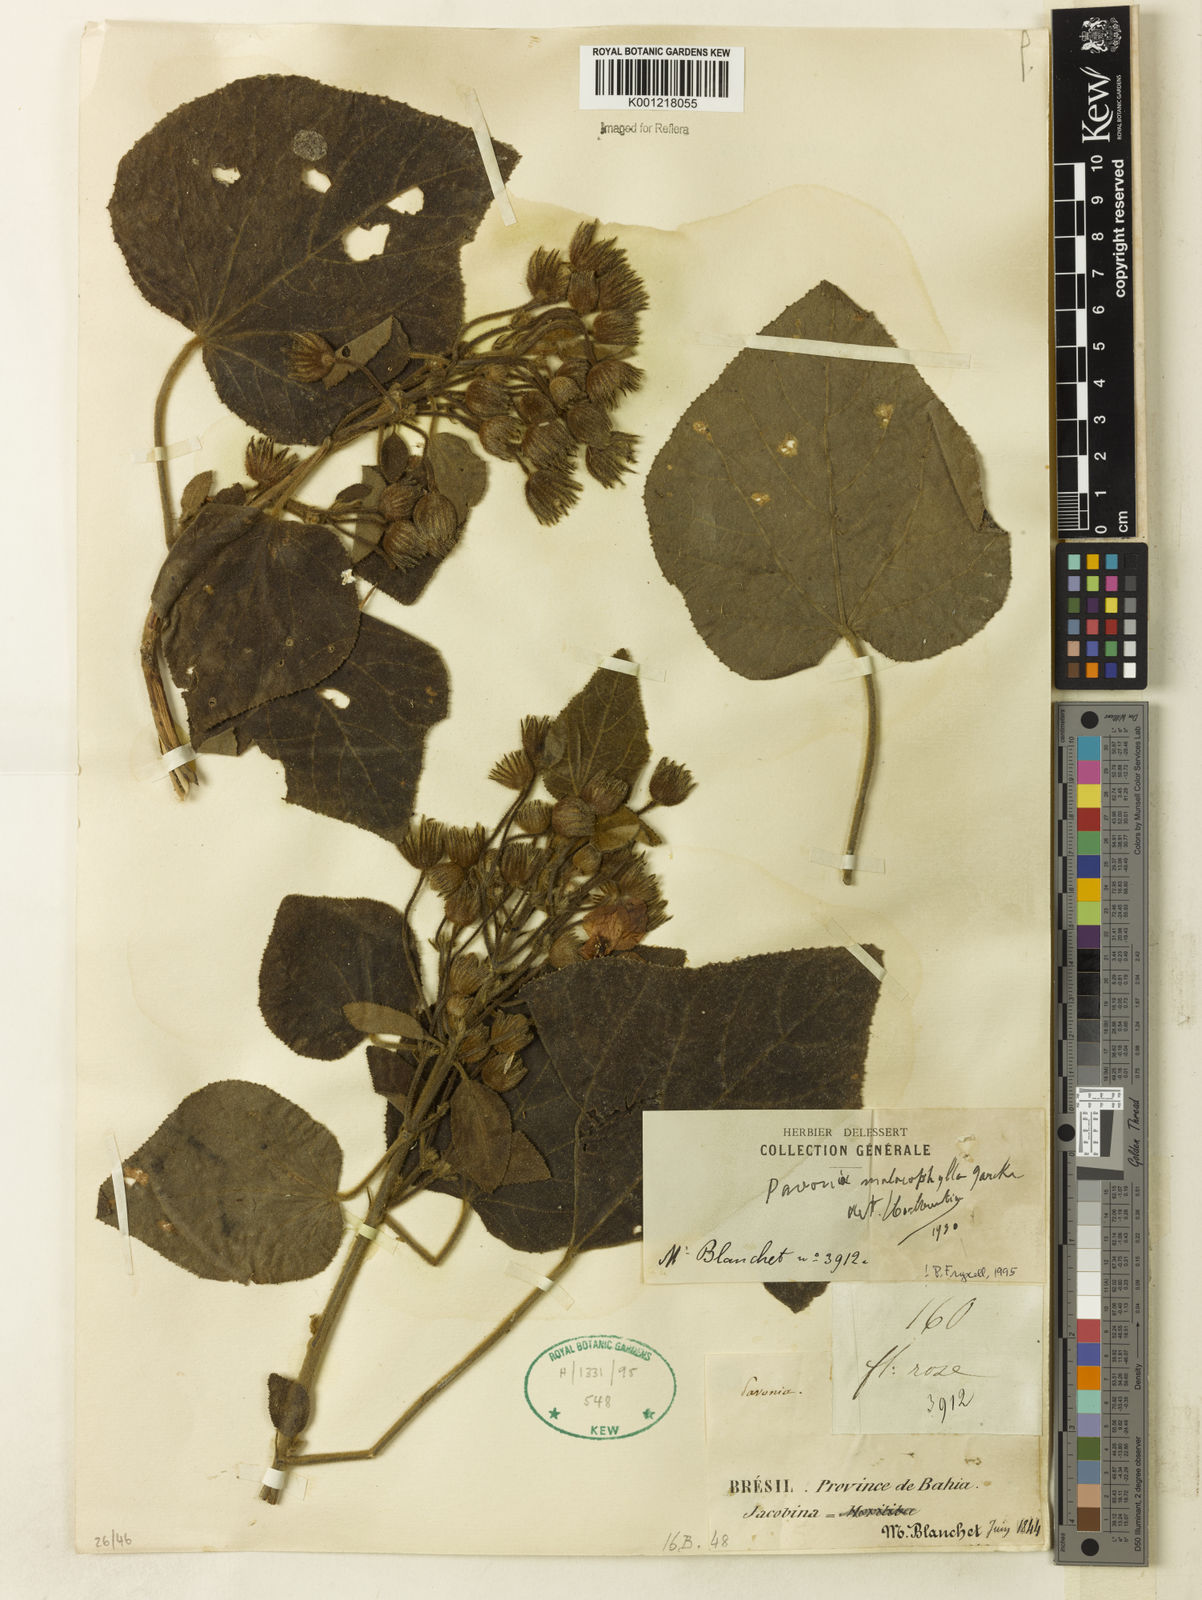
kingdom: Plantae
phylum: Tracheophyta
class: Magnoliopsida
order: Malvales
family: Malvaceae
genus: Pavonia
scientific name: Pavonia malacophylla
